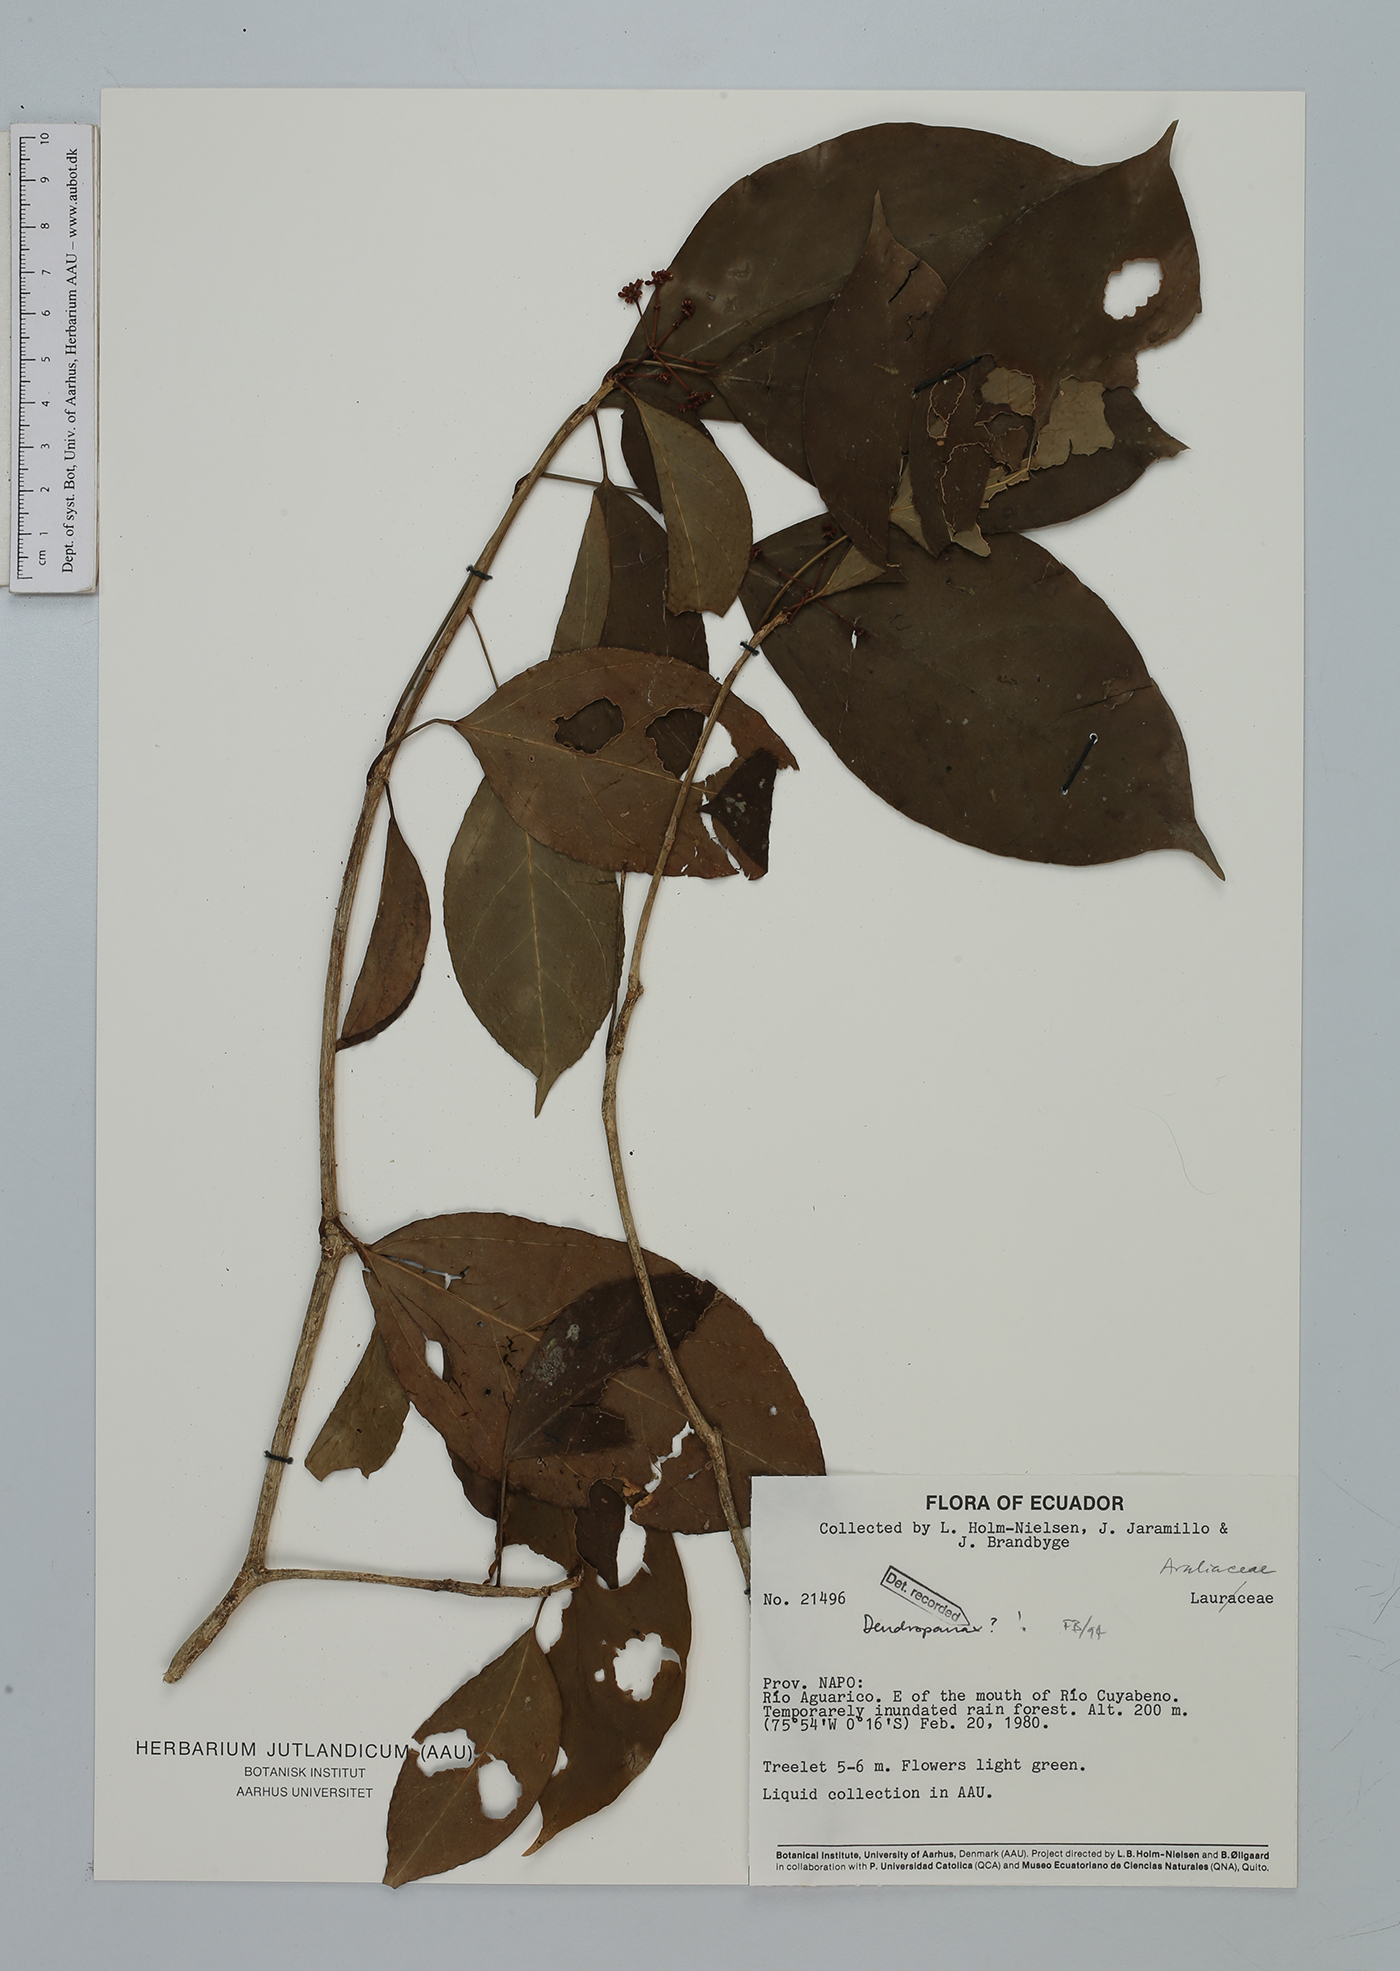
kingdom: Plantae
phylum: Tracheophyta
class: Magnoliopsida
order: Apiales
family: Araliaceae
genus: Dendropanax
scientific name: Dendropanax
